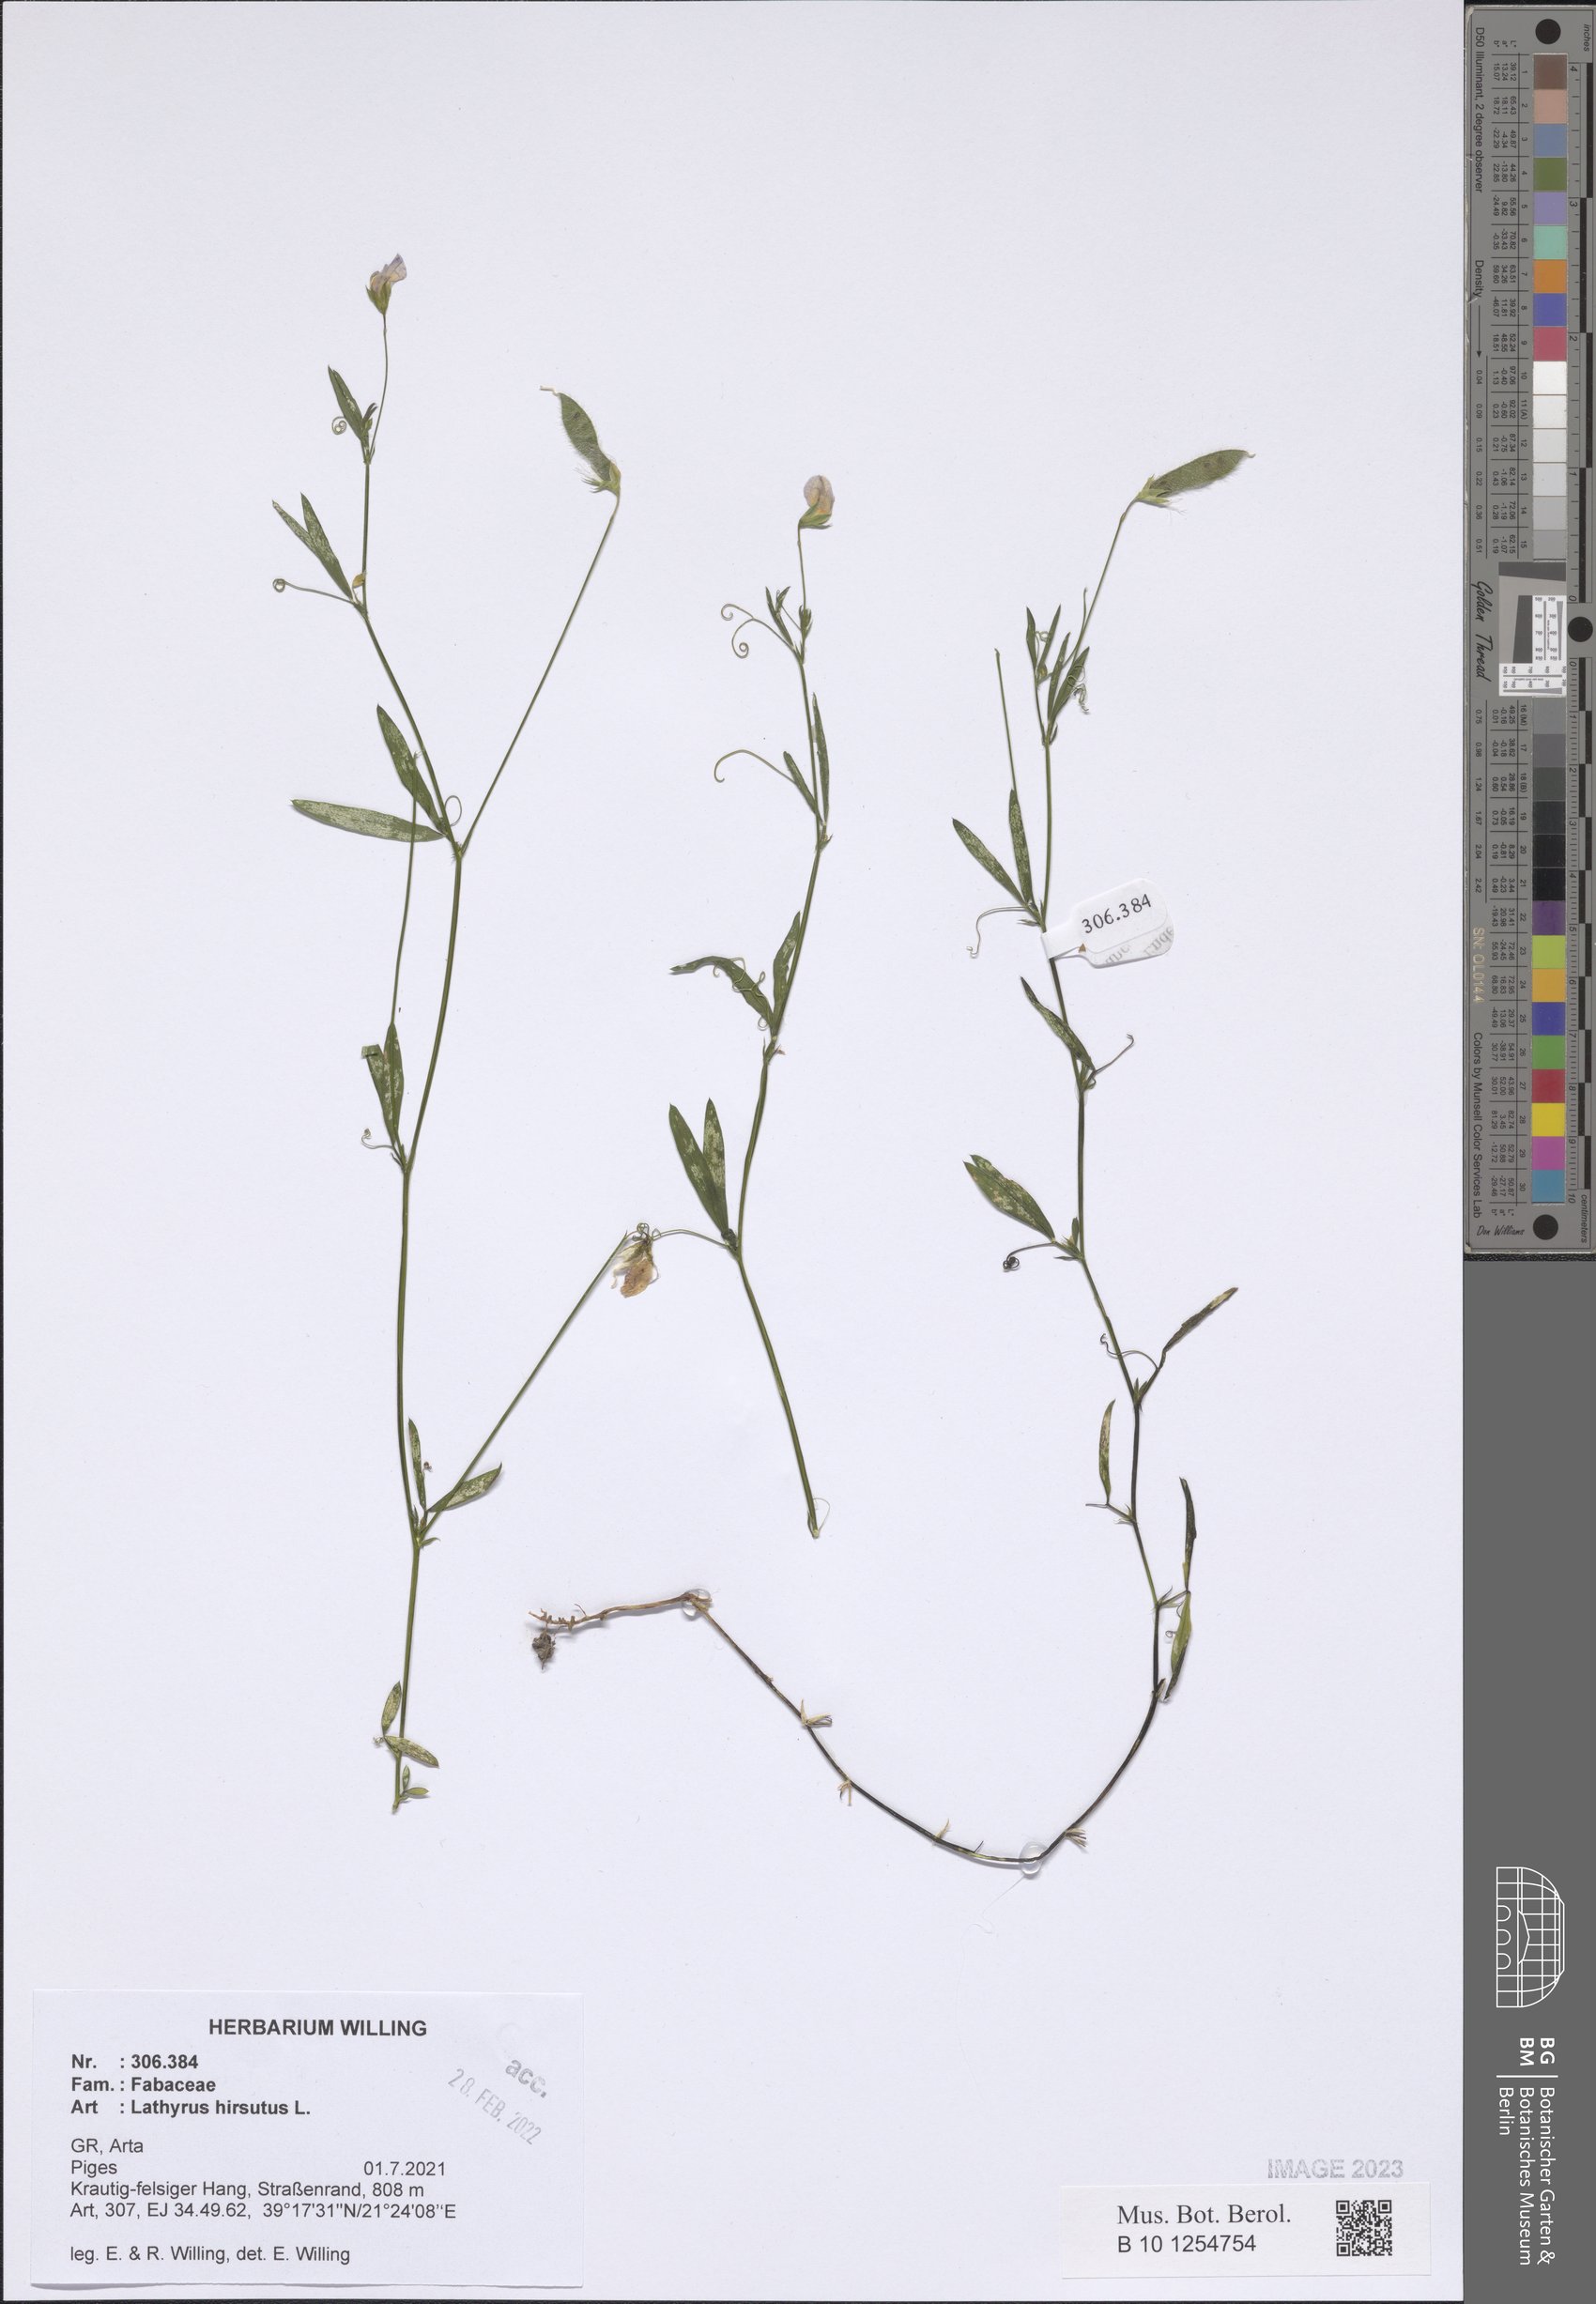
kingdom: Plantae
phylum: Tracheophyta
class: Magnoliopsida
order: Fabales
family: Fabaceae
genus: Lathyrus
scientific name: Lathyrus hirsutus
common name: Hairy vetchling
